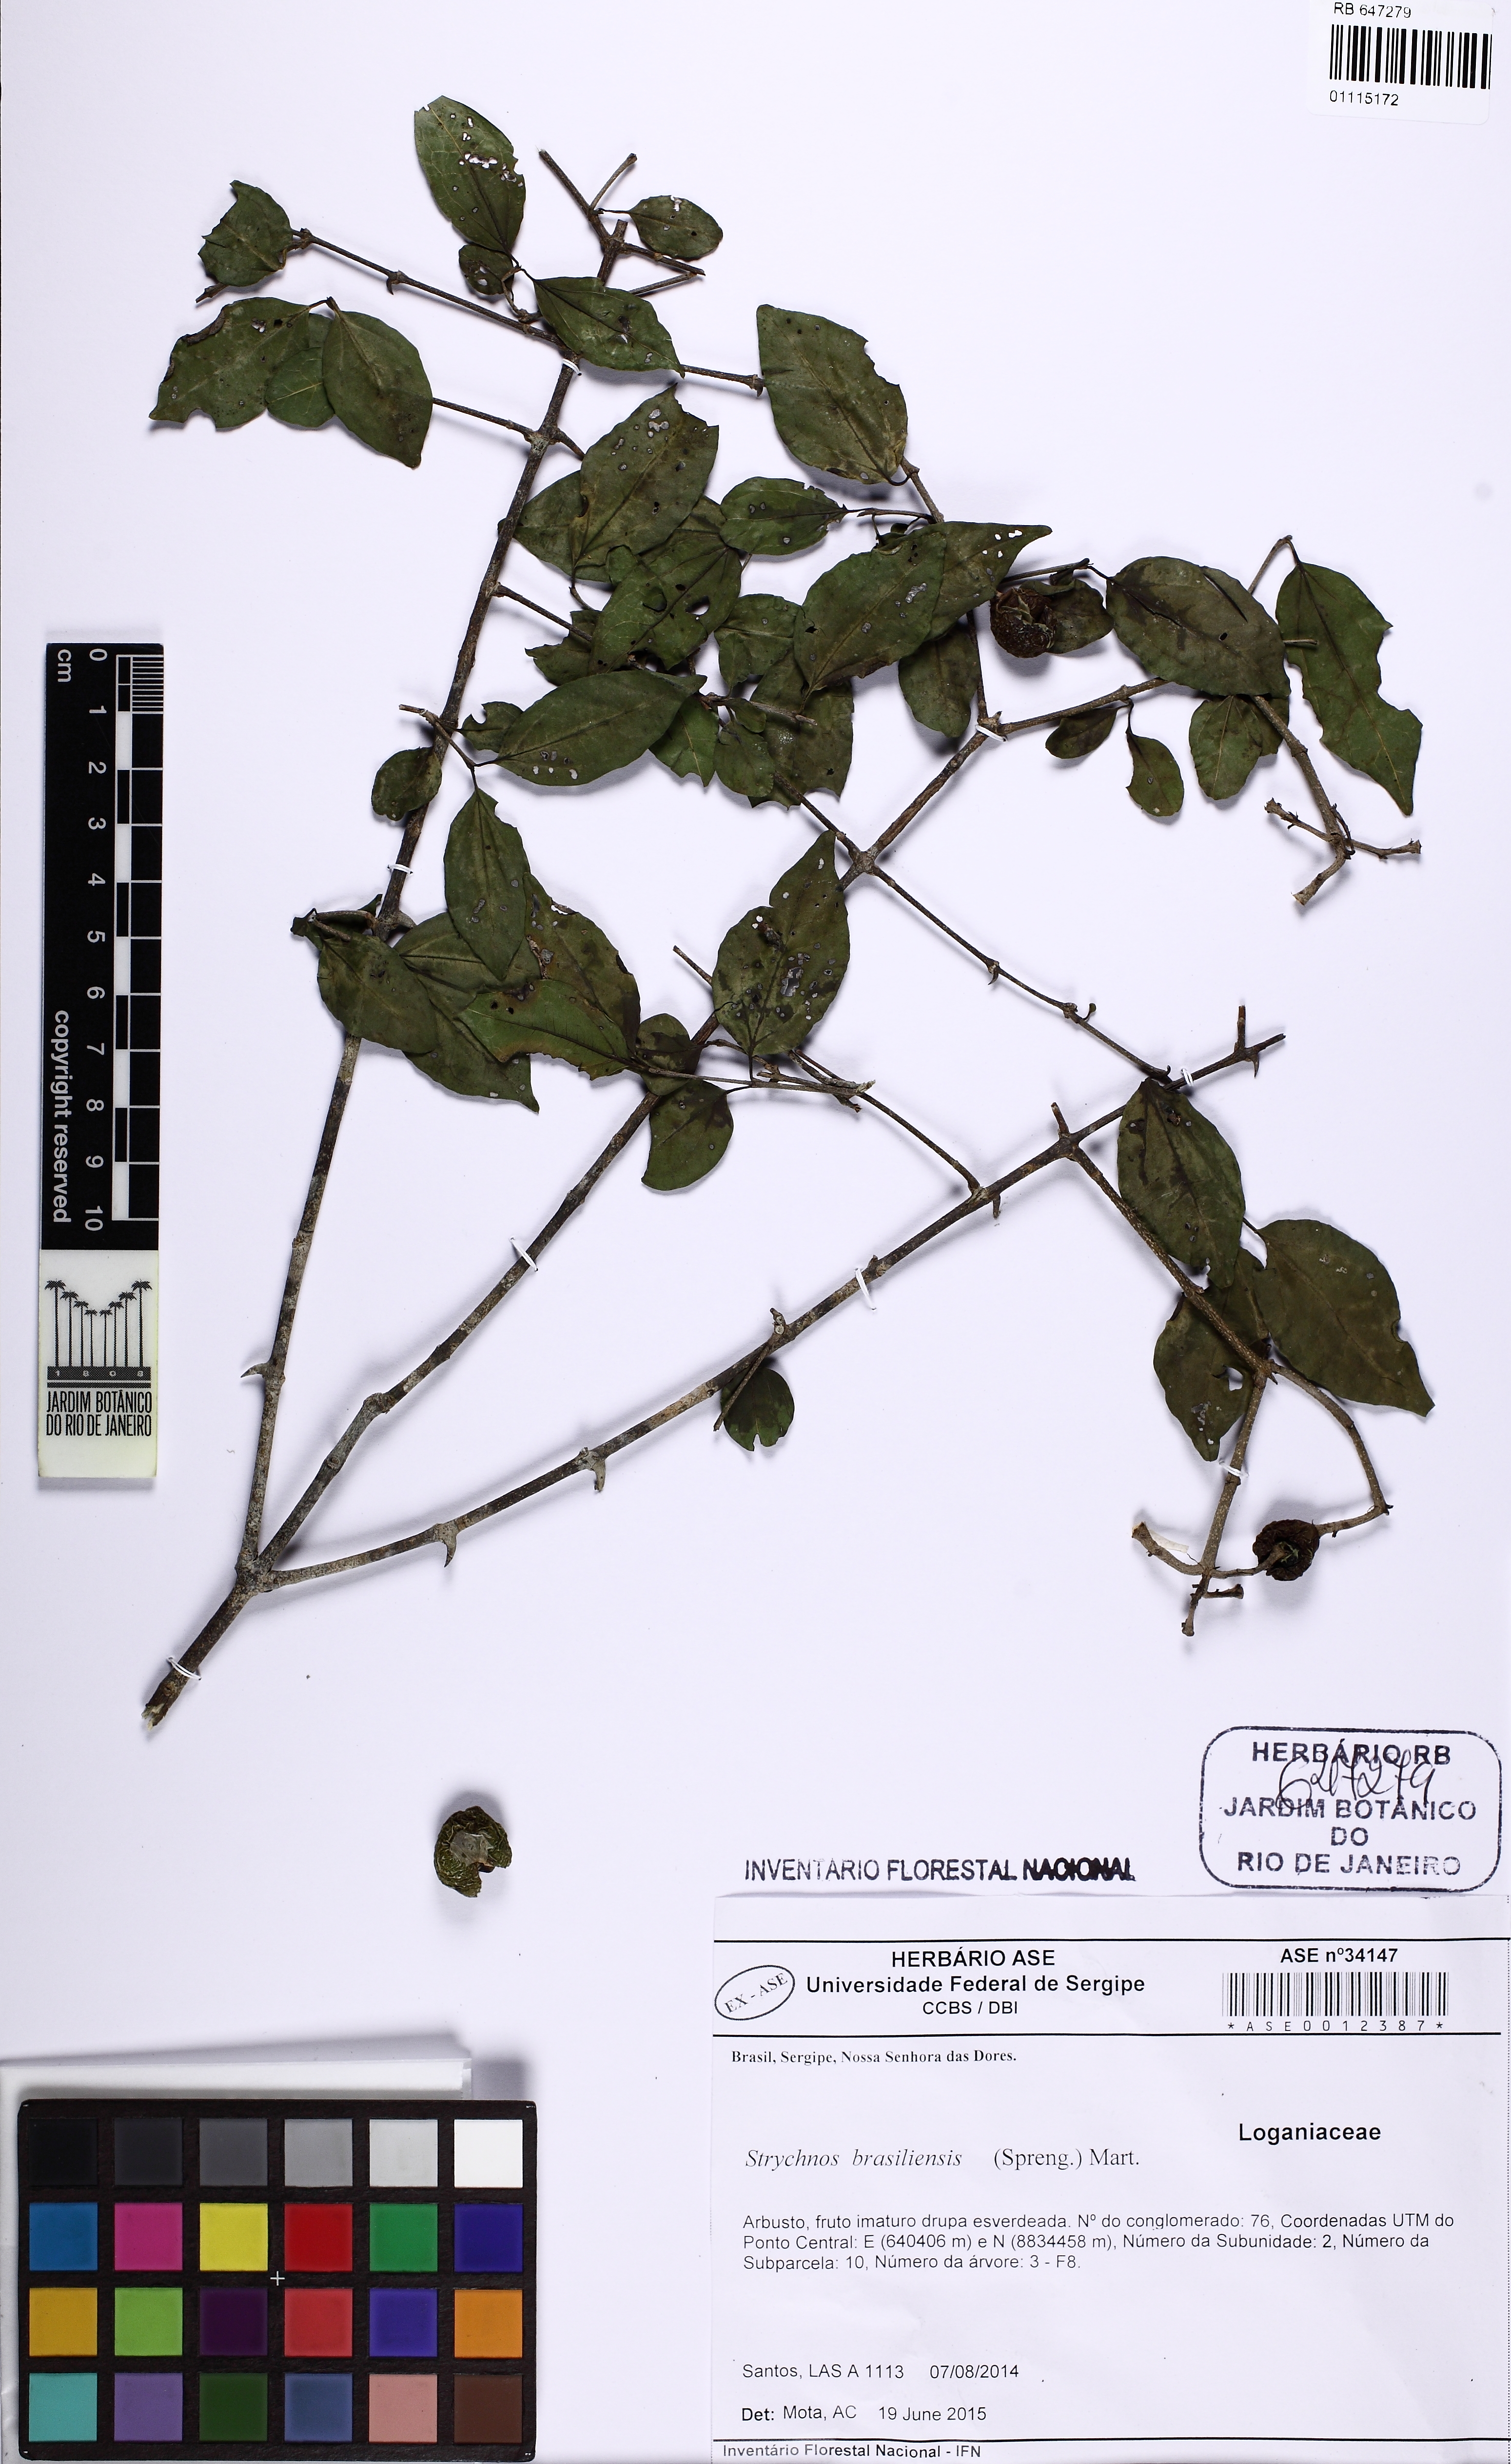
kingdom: Plantae
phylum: Tracheophyta
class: Magnoliopsida
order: Gentianales
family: Loganiaceae
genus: Strychnos
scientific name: Strychnos mattogrossensis
